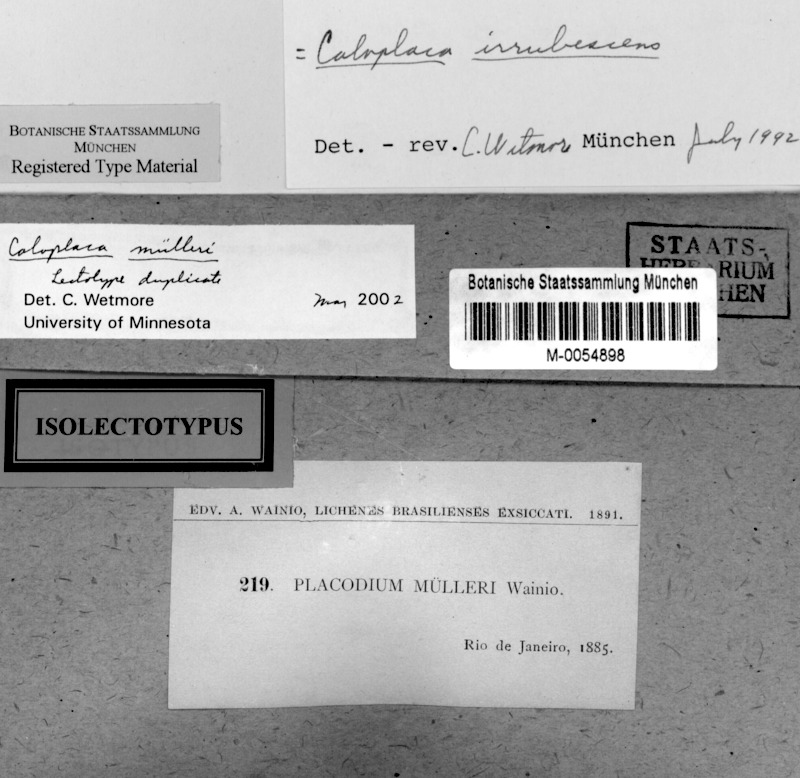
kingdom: Fungi
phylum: Ascomycota
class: Lecanoromycetes
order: Teloschistales
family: Teloschistaceae
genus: Caloplaca
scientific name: Caloplaca
